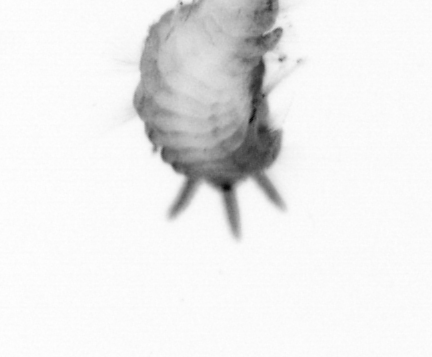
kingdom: Animalia
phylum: Annelida
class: Polychaeta
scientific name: Polychaeta
